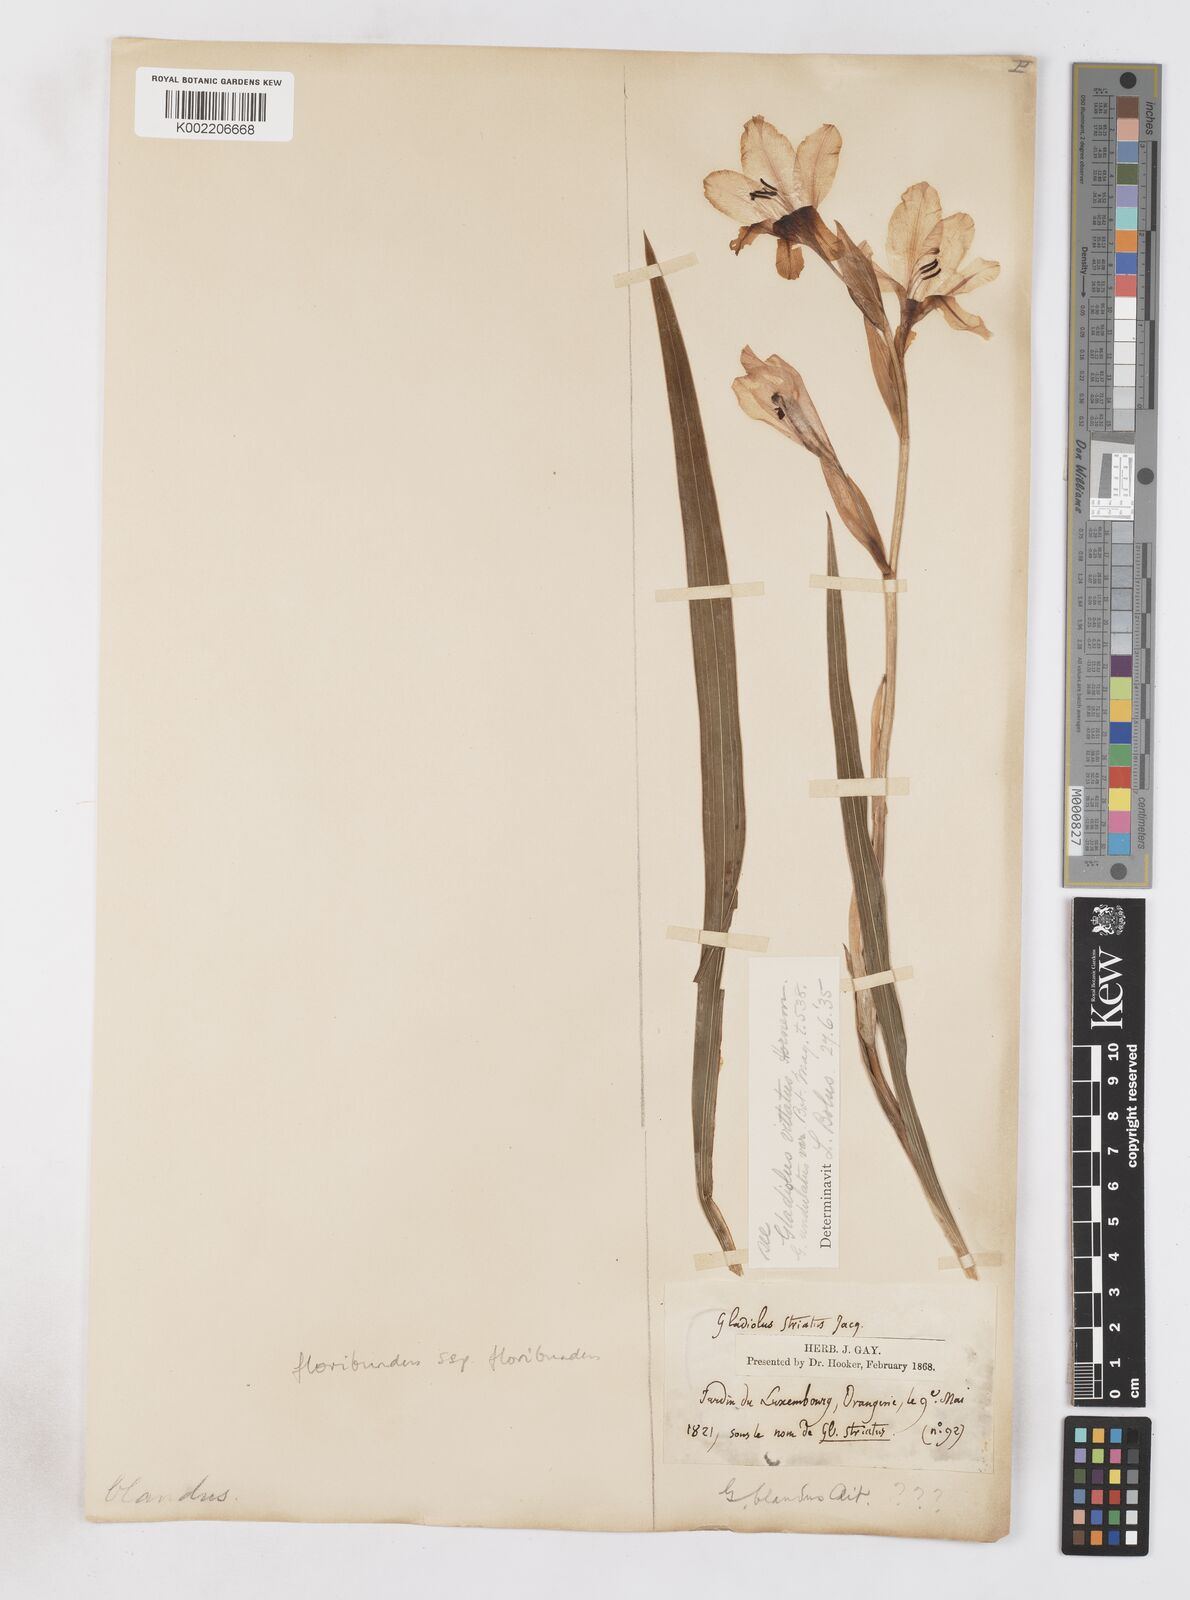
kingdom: Plantae
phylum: Tracheophyta
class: Liliopsida
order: Asparagales
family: Iridaceae
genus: Gladiolus
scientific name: Gladiolus floribundus
